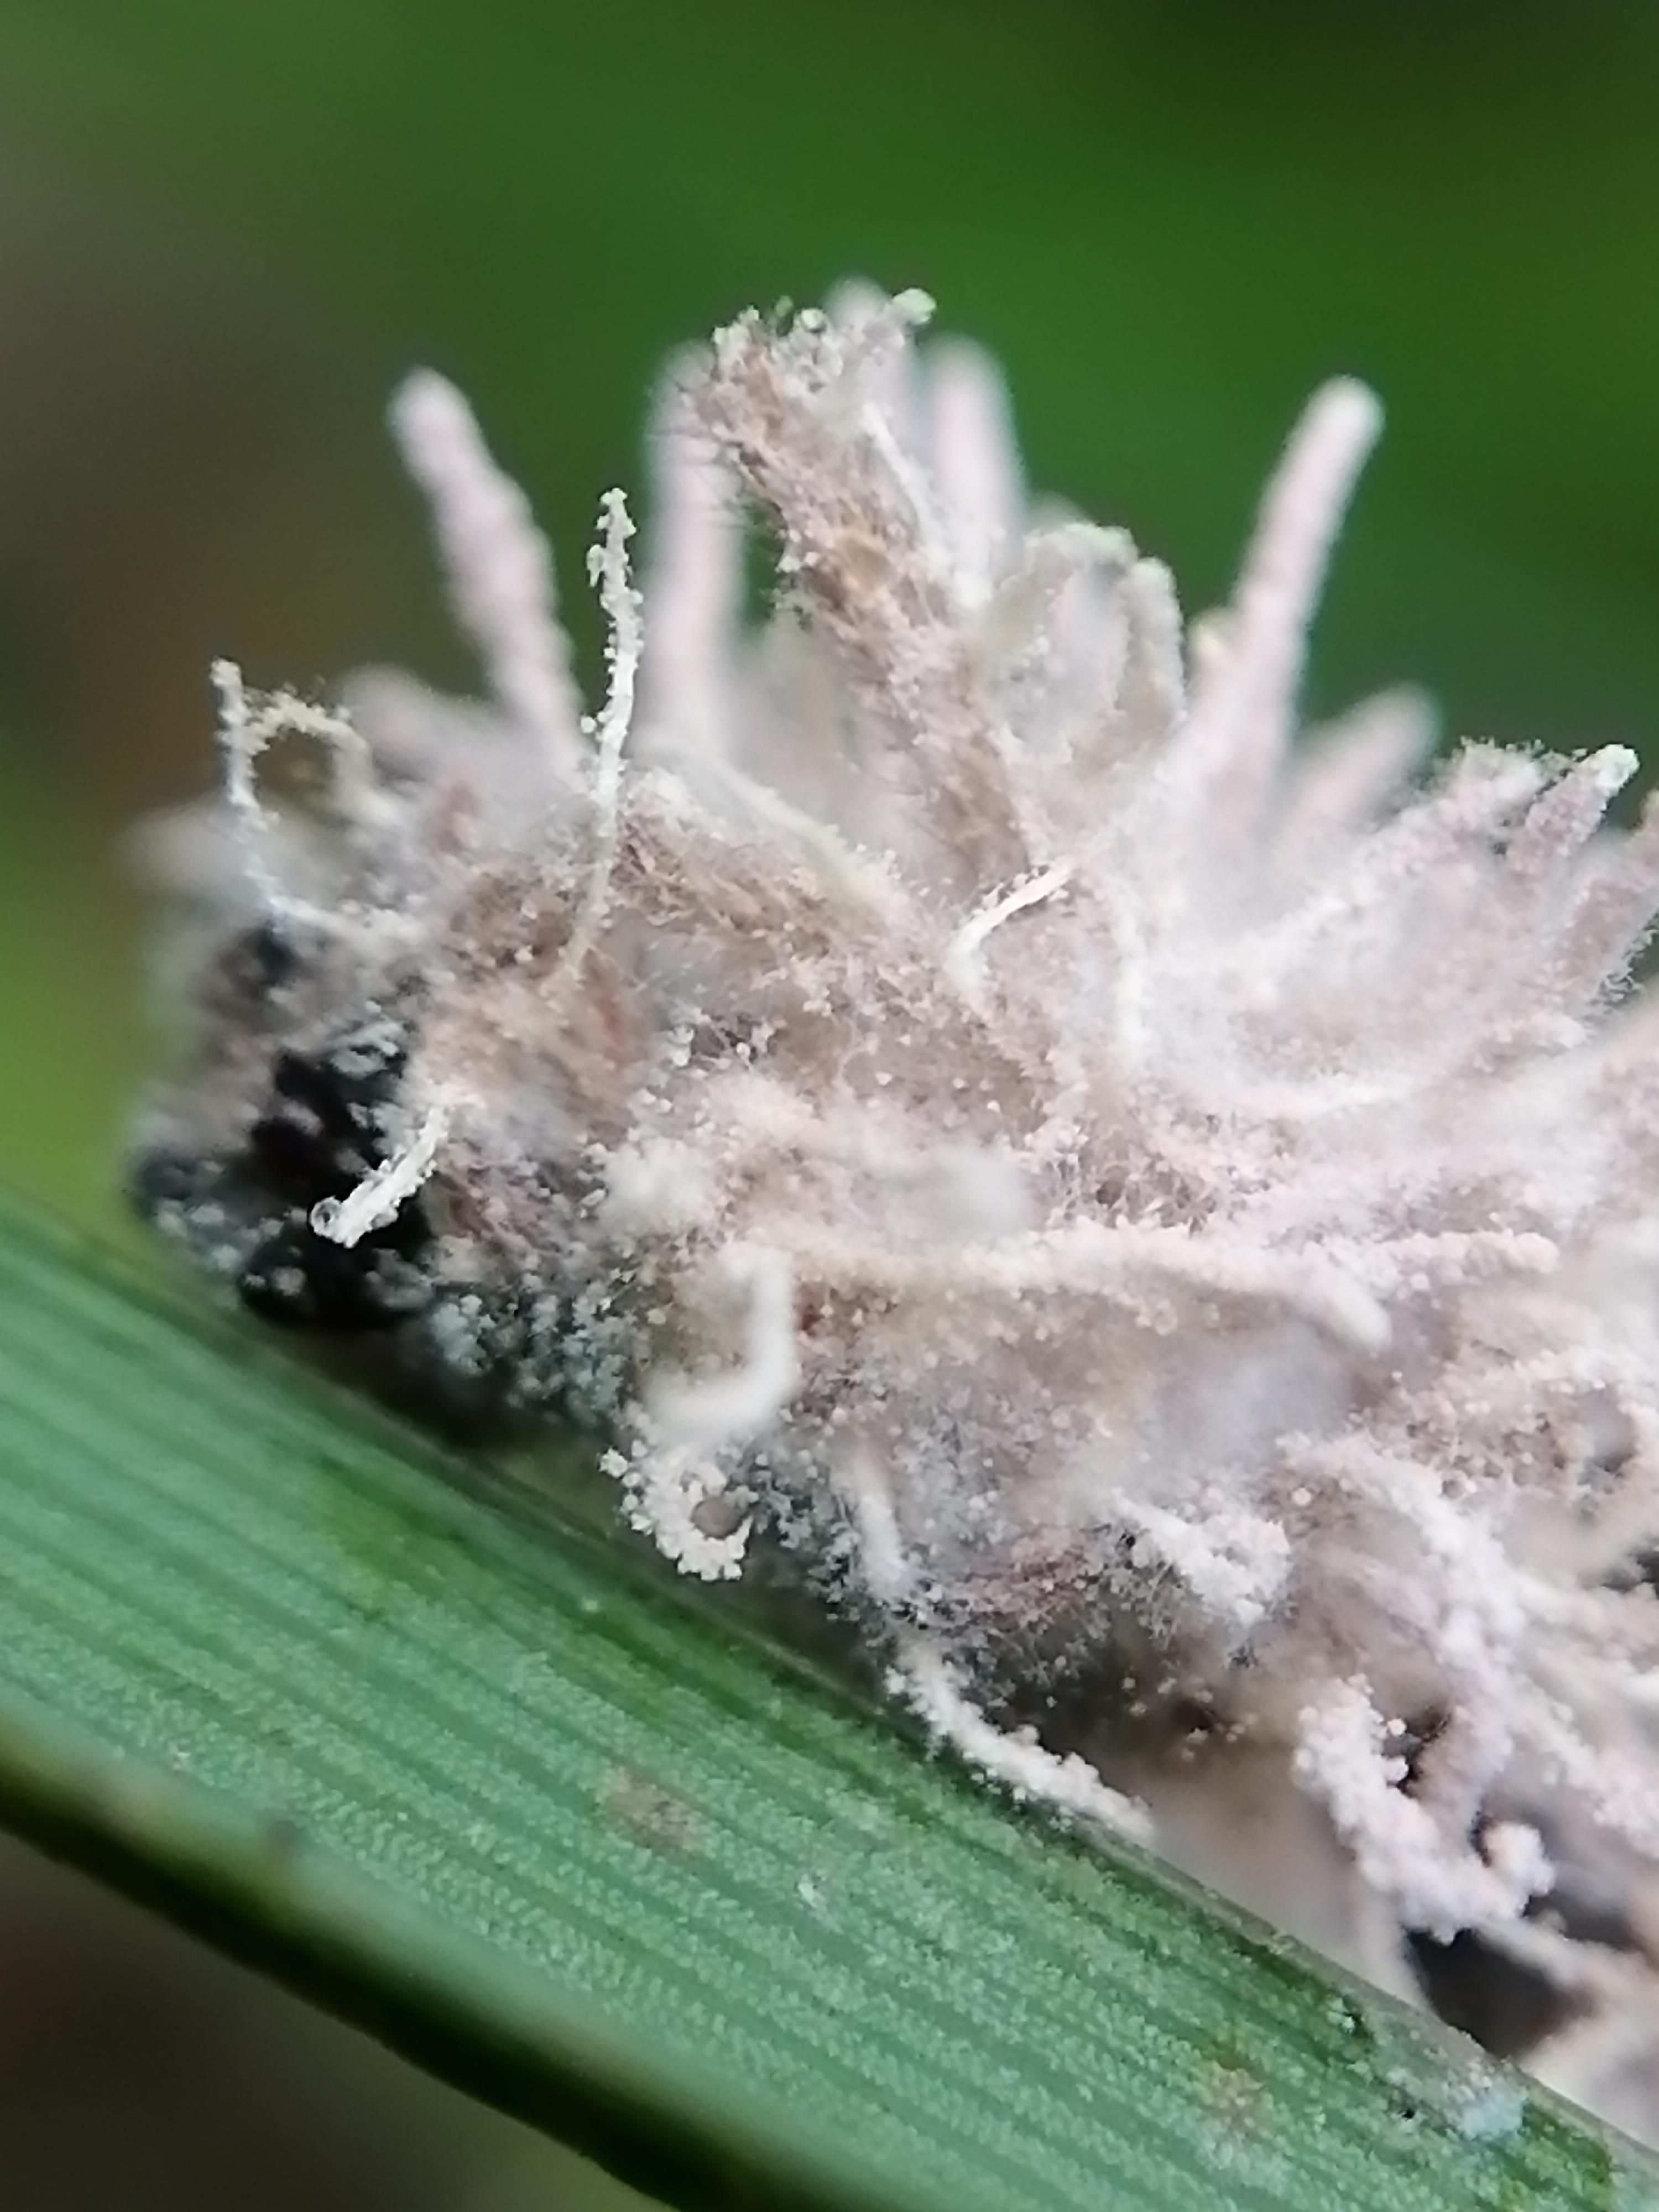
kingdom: Fungi
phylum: Ascomycota
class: Sordariomycetes
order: Hypocreales
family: Cordycipitaceae
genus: Gibellula
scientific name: Gibellula pulchra
